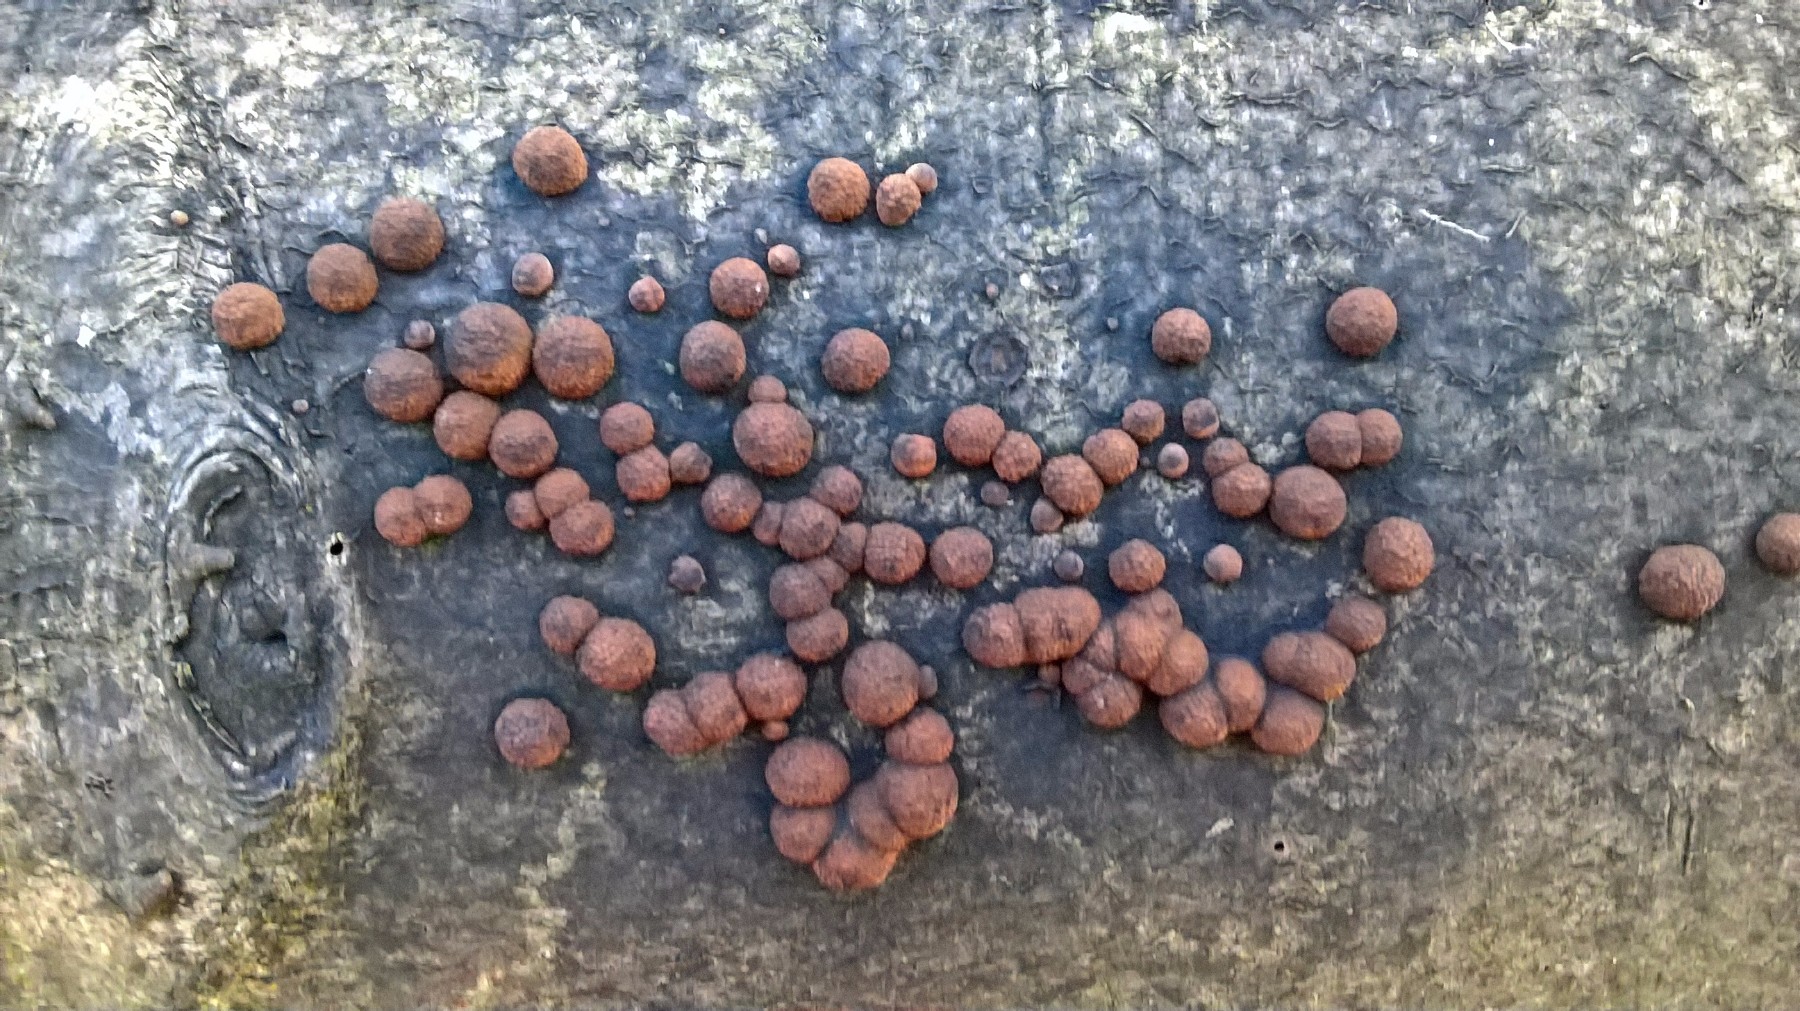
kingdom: Fungi
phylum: Ascomycota
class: Sordariomycetes
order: Xylariales
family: Hypoxylaceae
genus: Hypoxylon
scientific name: Hypoxylon fragiforme
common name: kuljordbær
